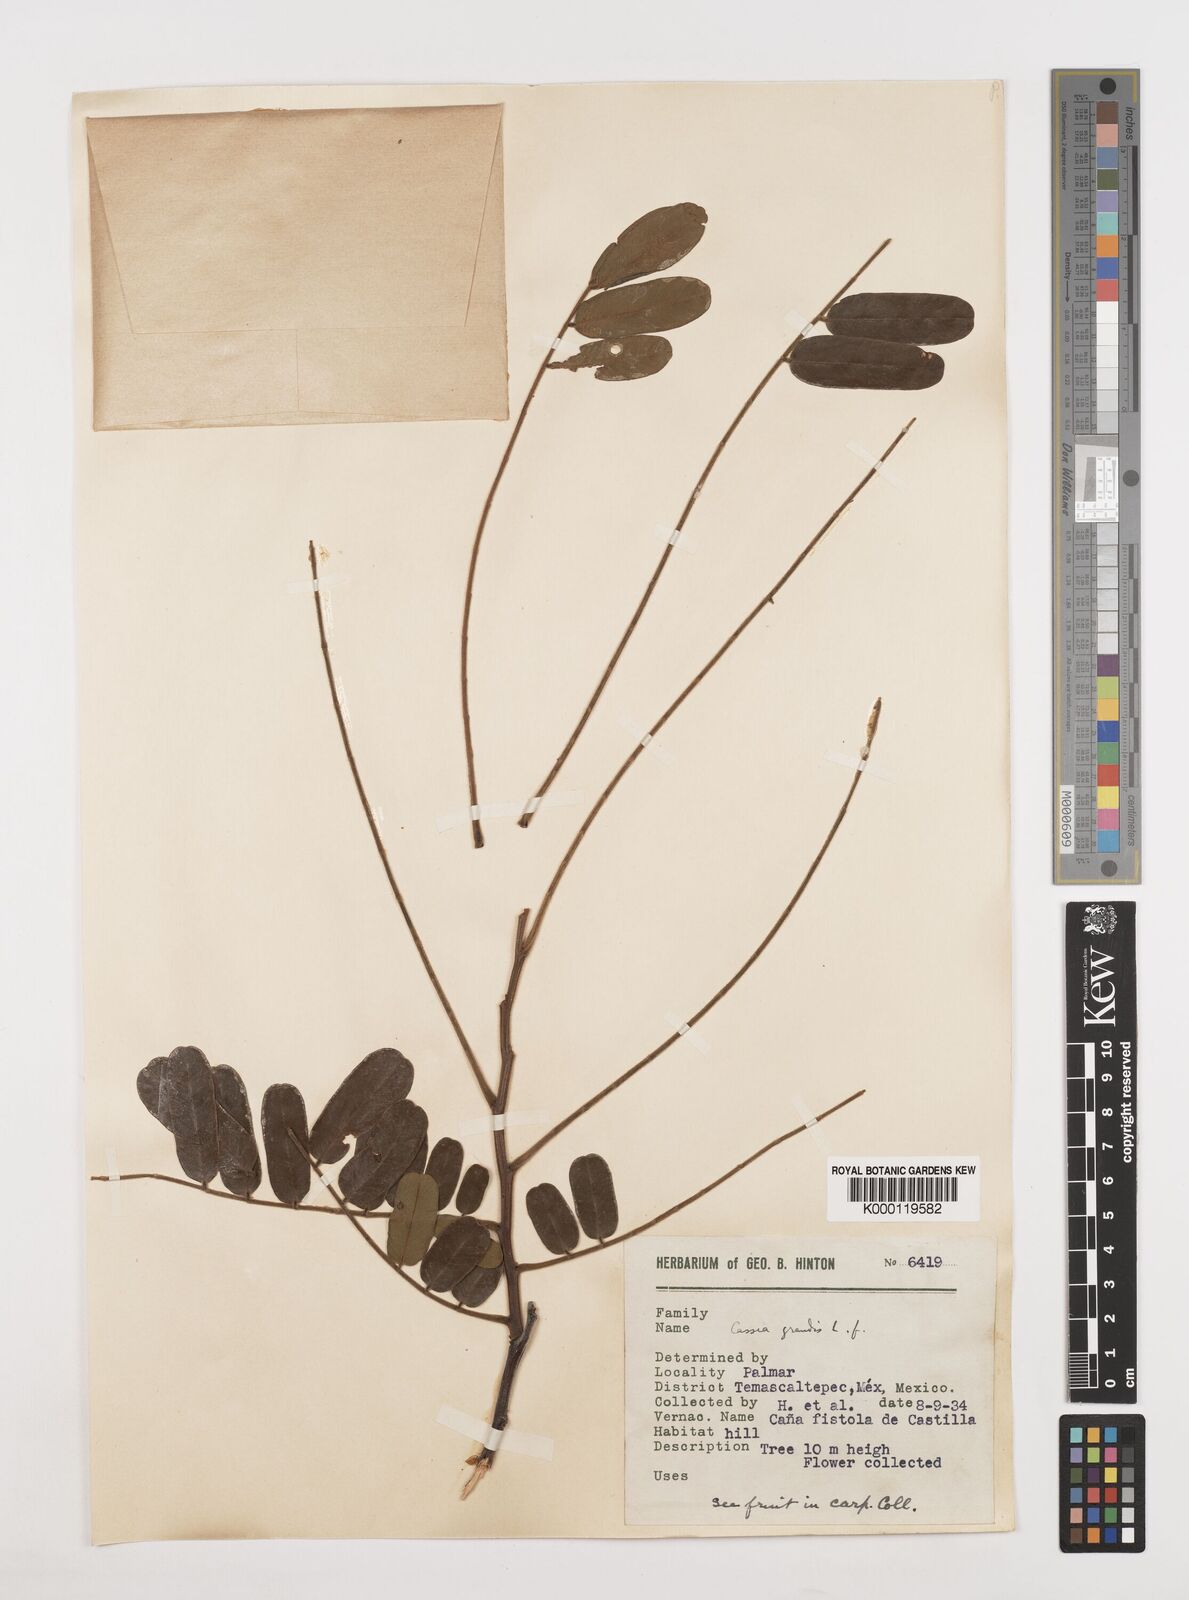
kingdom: Plantae
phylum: Tracheophyta
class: Magnoliopsida
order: Fabales
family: Fabaceae
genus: Cassia
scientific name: Cassia grandis
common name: Appleblossom cassia
